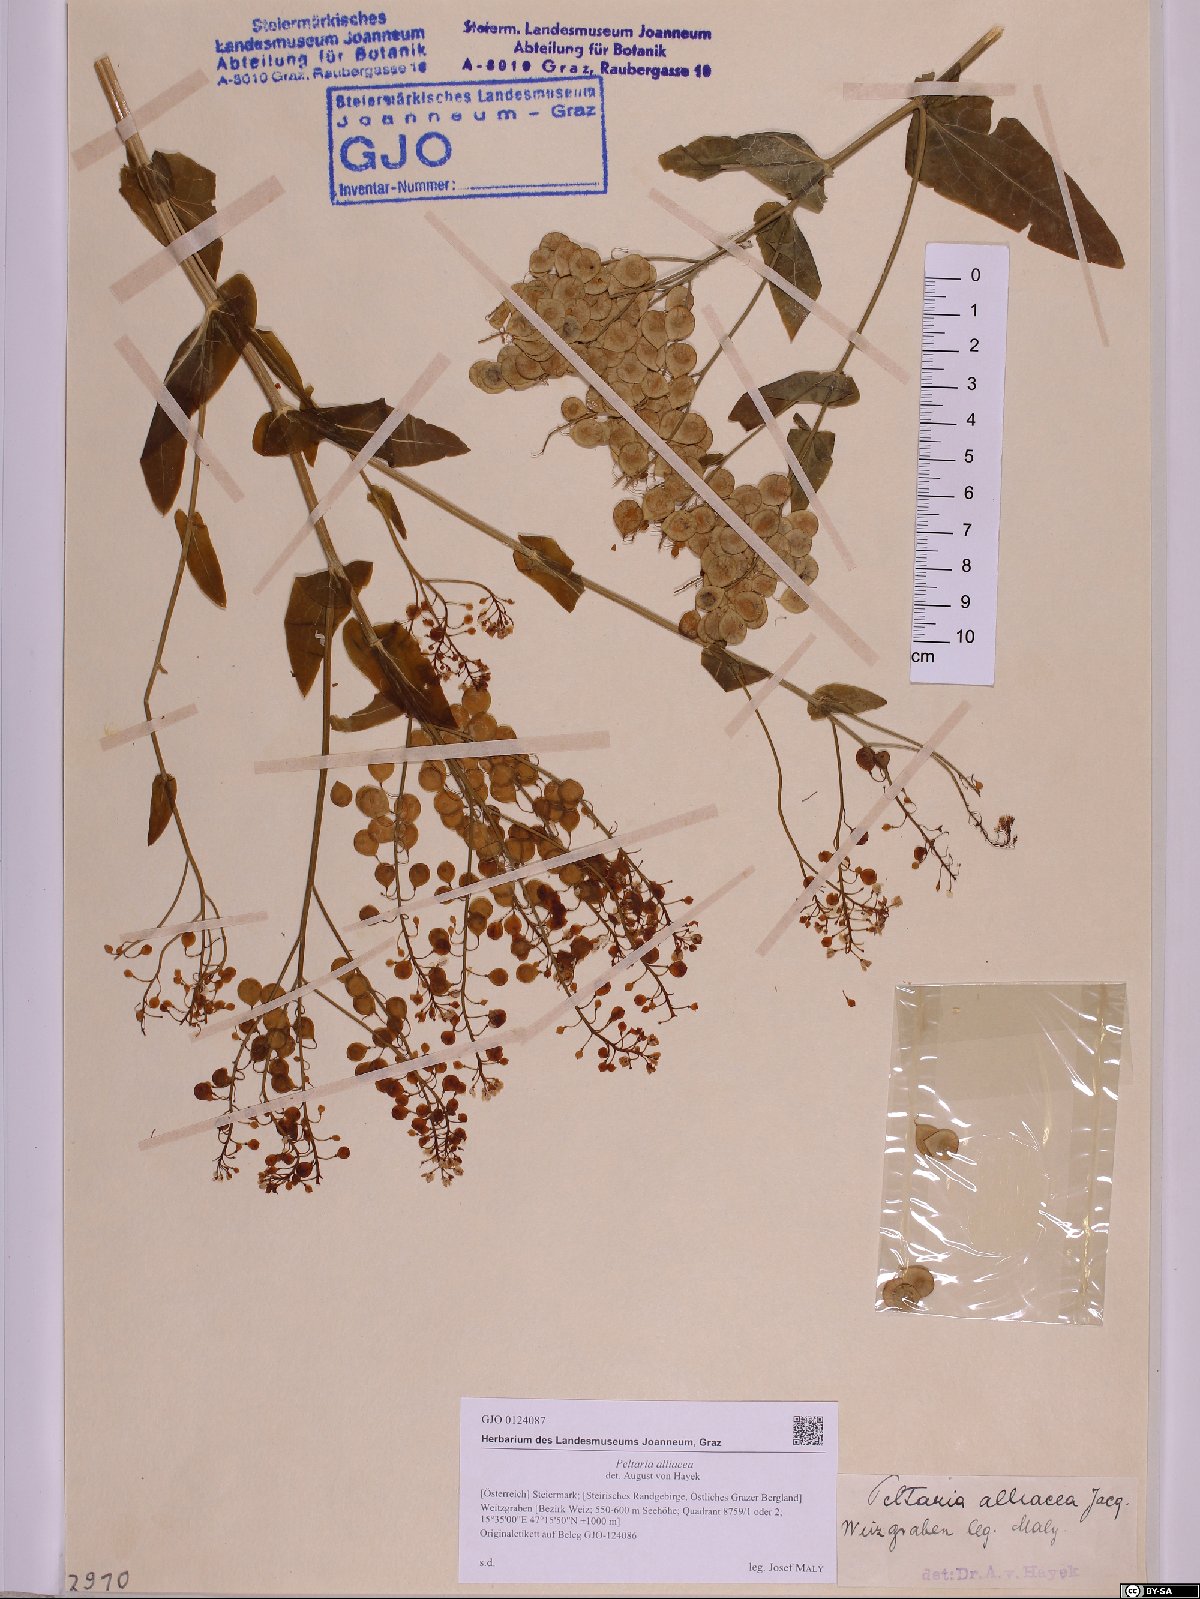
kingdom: Plantae
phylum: Tracheophyta
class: Magnoliopsida
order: Brassicales
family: Brassicaceae
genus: Peltaria
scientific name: Peltaria alliacea
